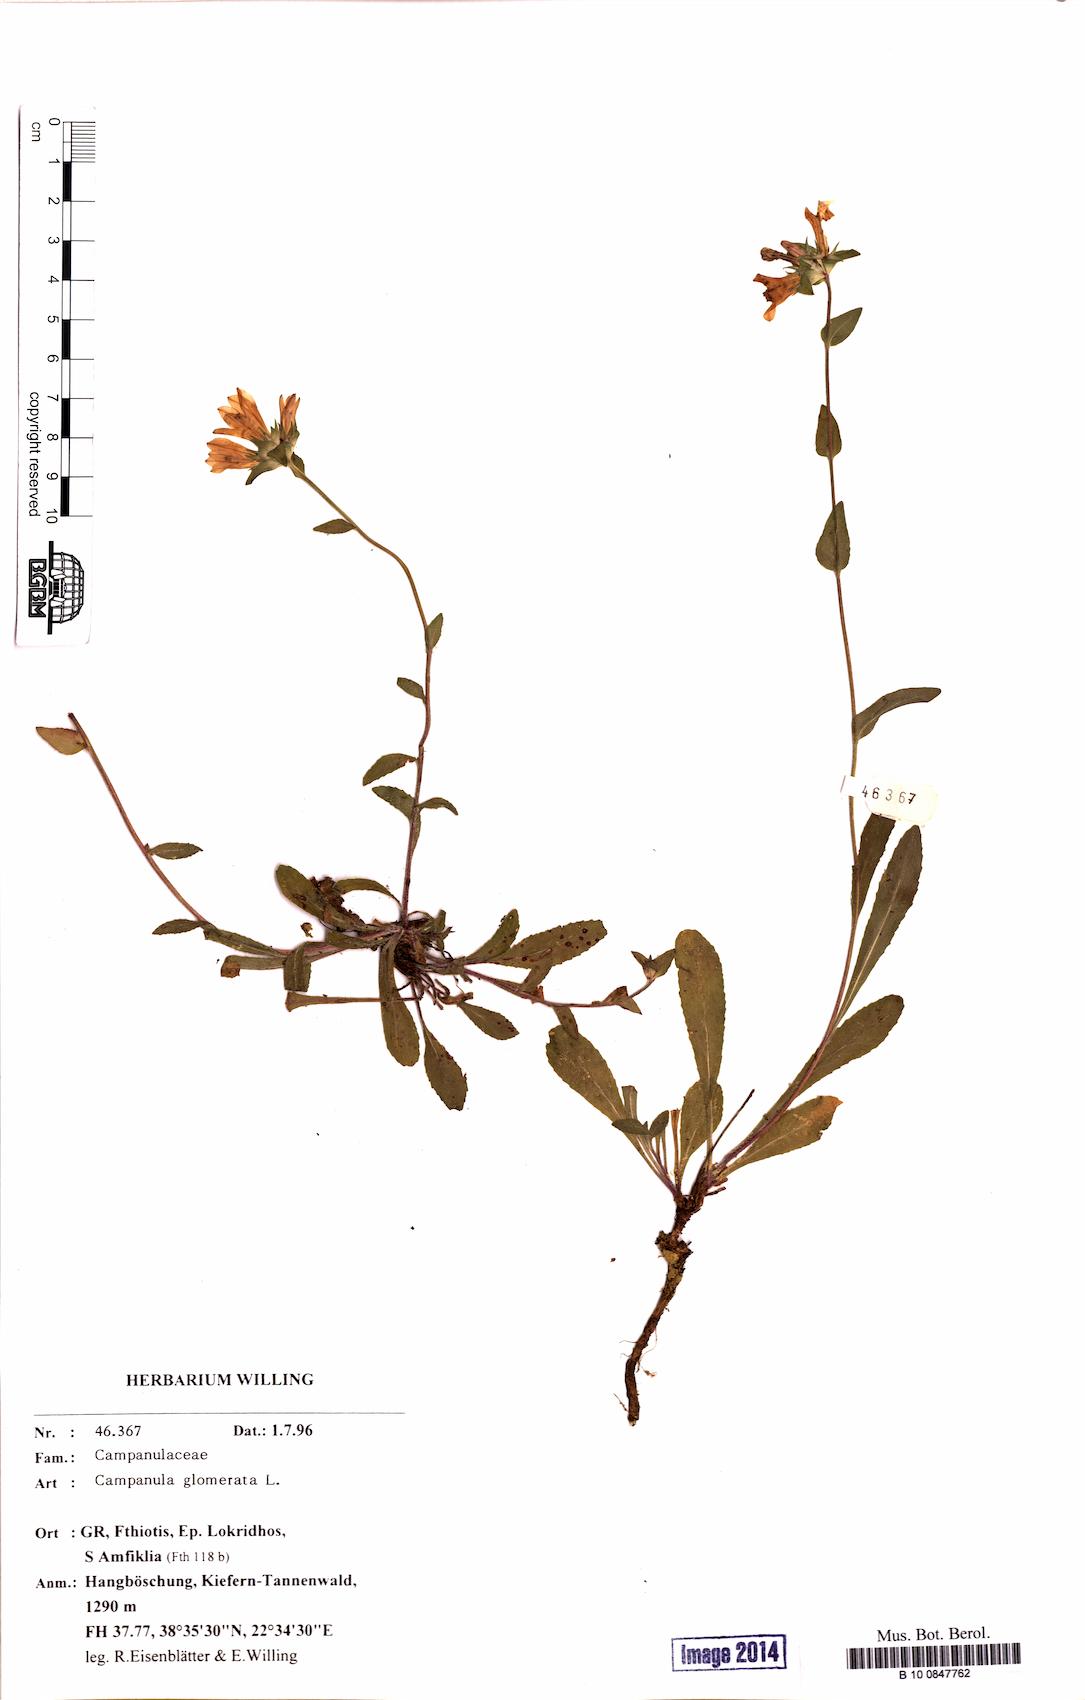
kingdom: Plantae
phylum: Tracheophyta
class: Magnoliopsida
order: Asterales
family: Campanulaceae
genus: Campanula
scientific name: Campanula glomerata
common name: Clustered bellflower
